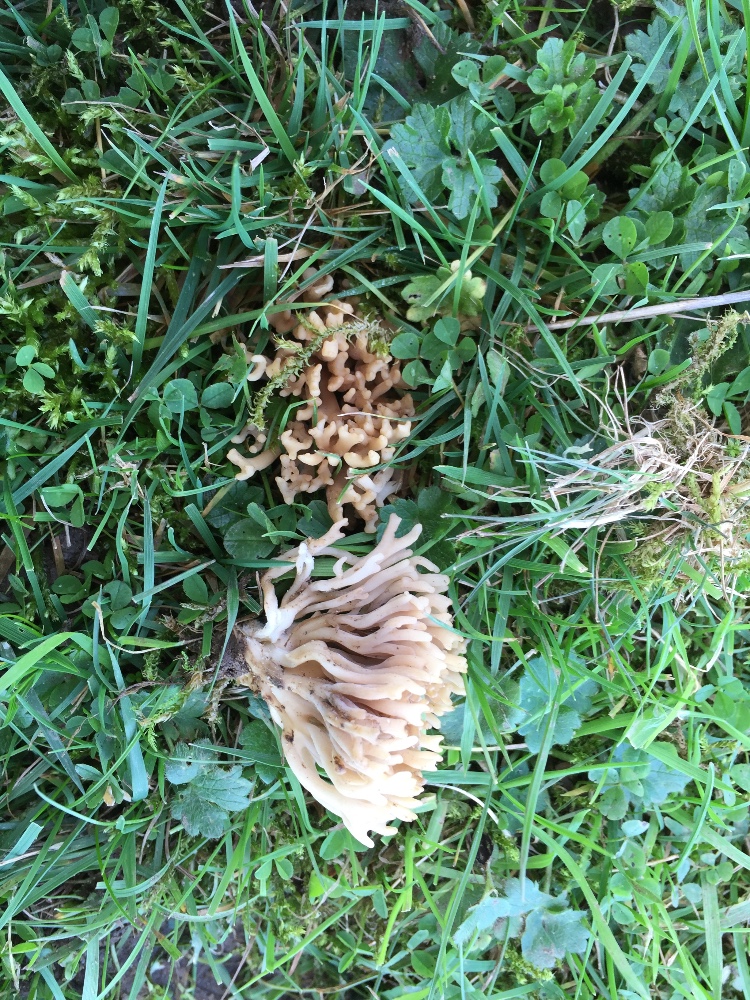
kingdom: Fungi
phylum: Basidiomycota
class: Agaricomycetes
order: Agaricales
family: Clavariaceae
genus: Clavulinopsis
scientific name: Clavulinopsis umbrinella
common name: gulgrå køllesvamp
